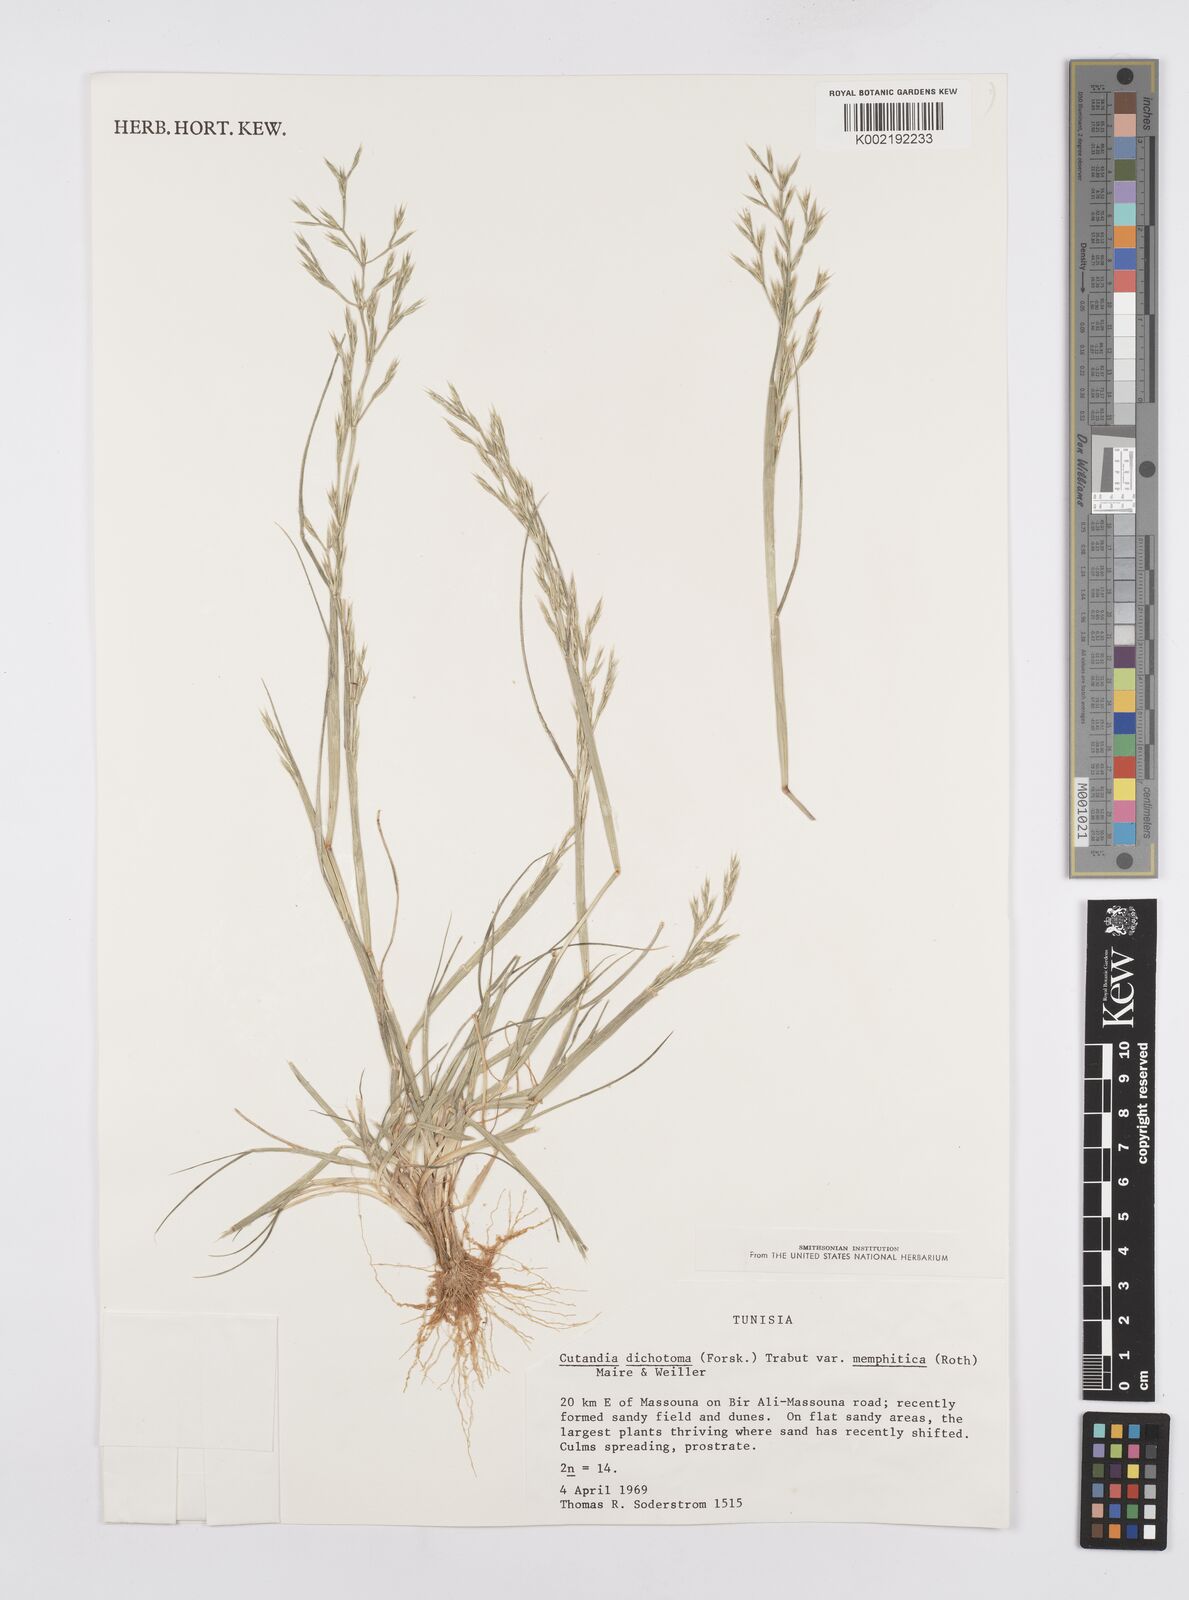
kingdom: Plantae
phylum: Tracheophyta
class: Liliopsida
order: Poales
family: Poaceae
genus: Cutandia
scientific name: Cutandia memphitica
